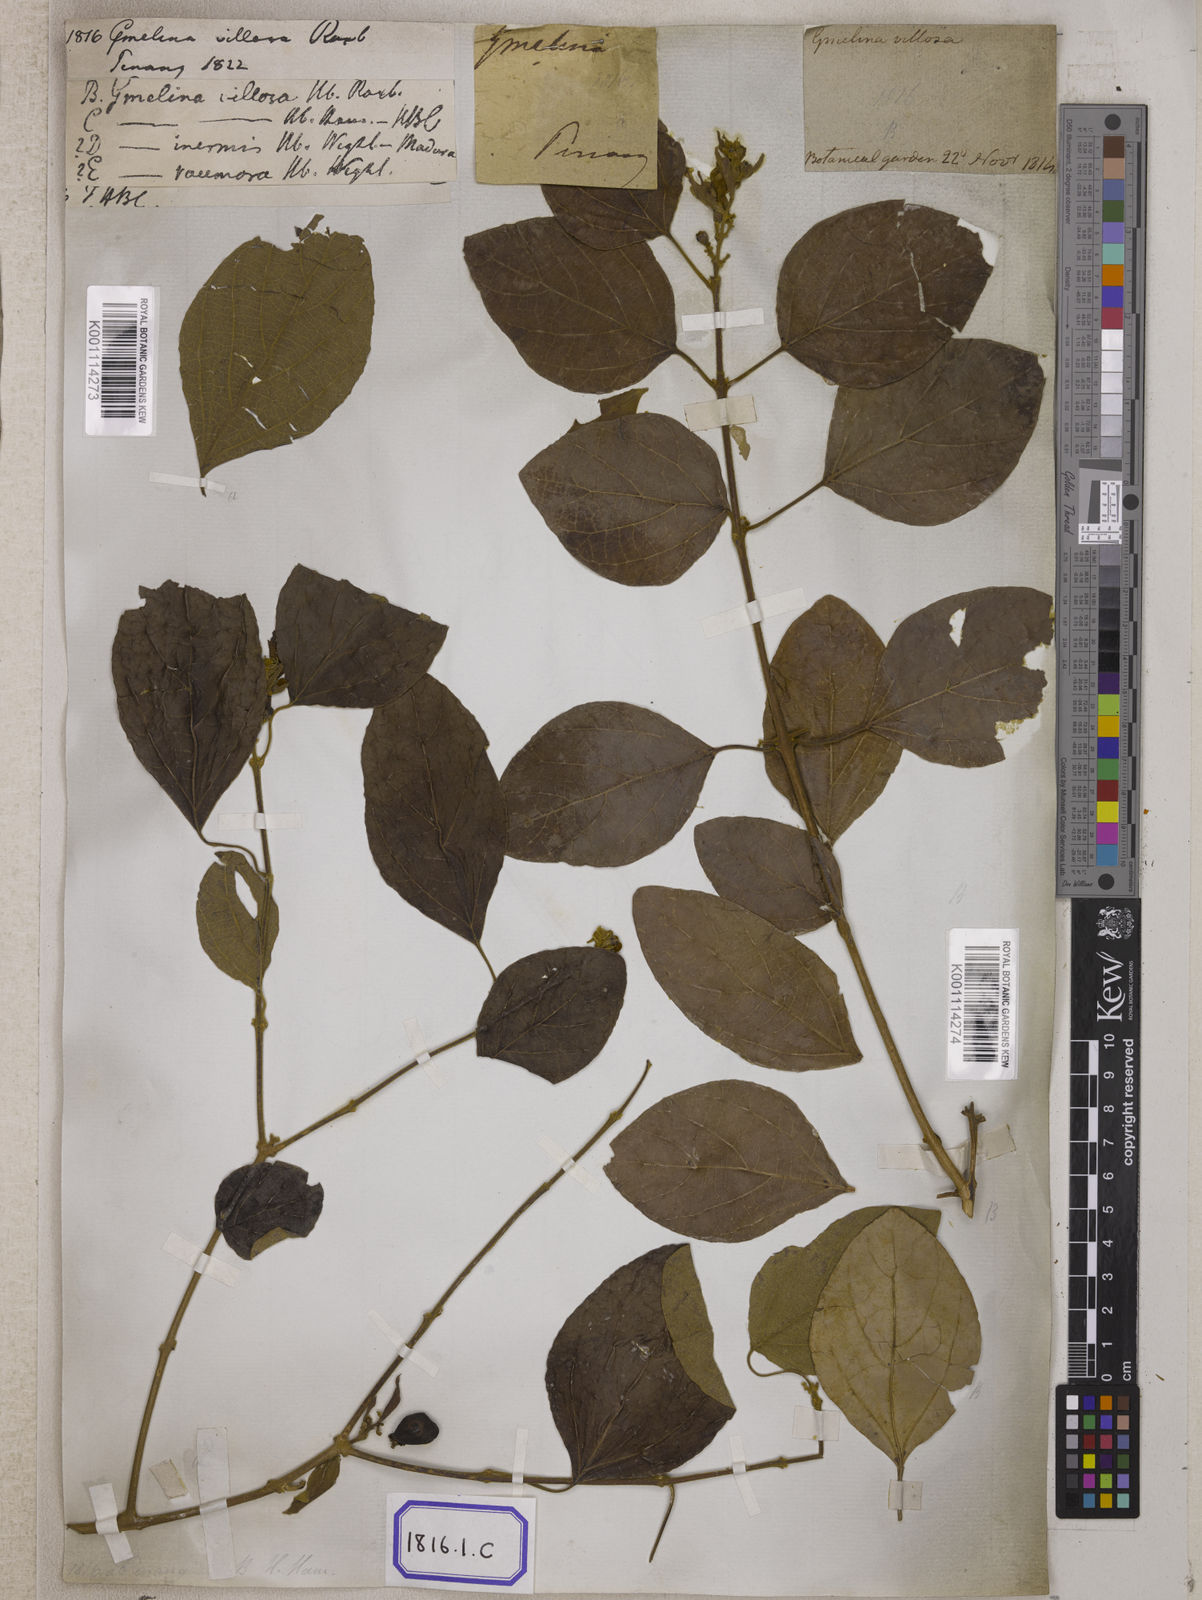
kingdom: Plantae
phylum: Tracheophyta
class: Magnoliopsida
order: Lamiales
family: Lamiaceae
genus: Gmelina
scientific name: Gmelina elliptica
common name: Badhara-bush
